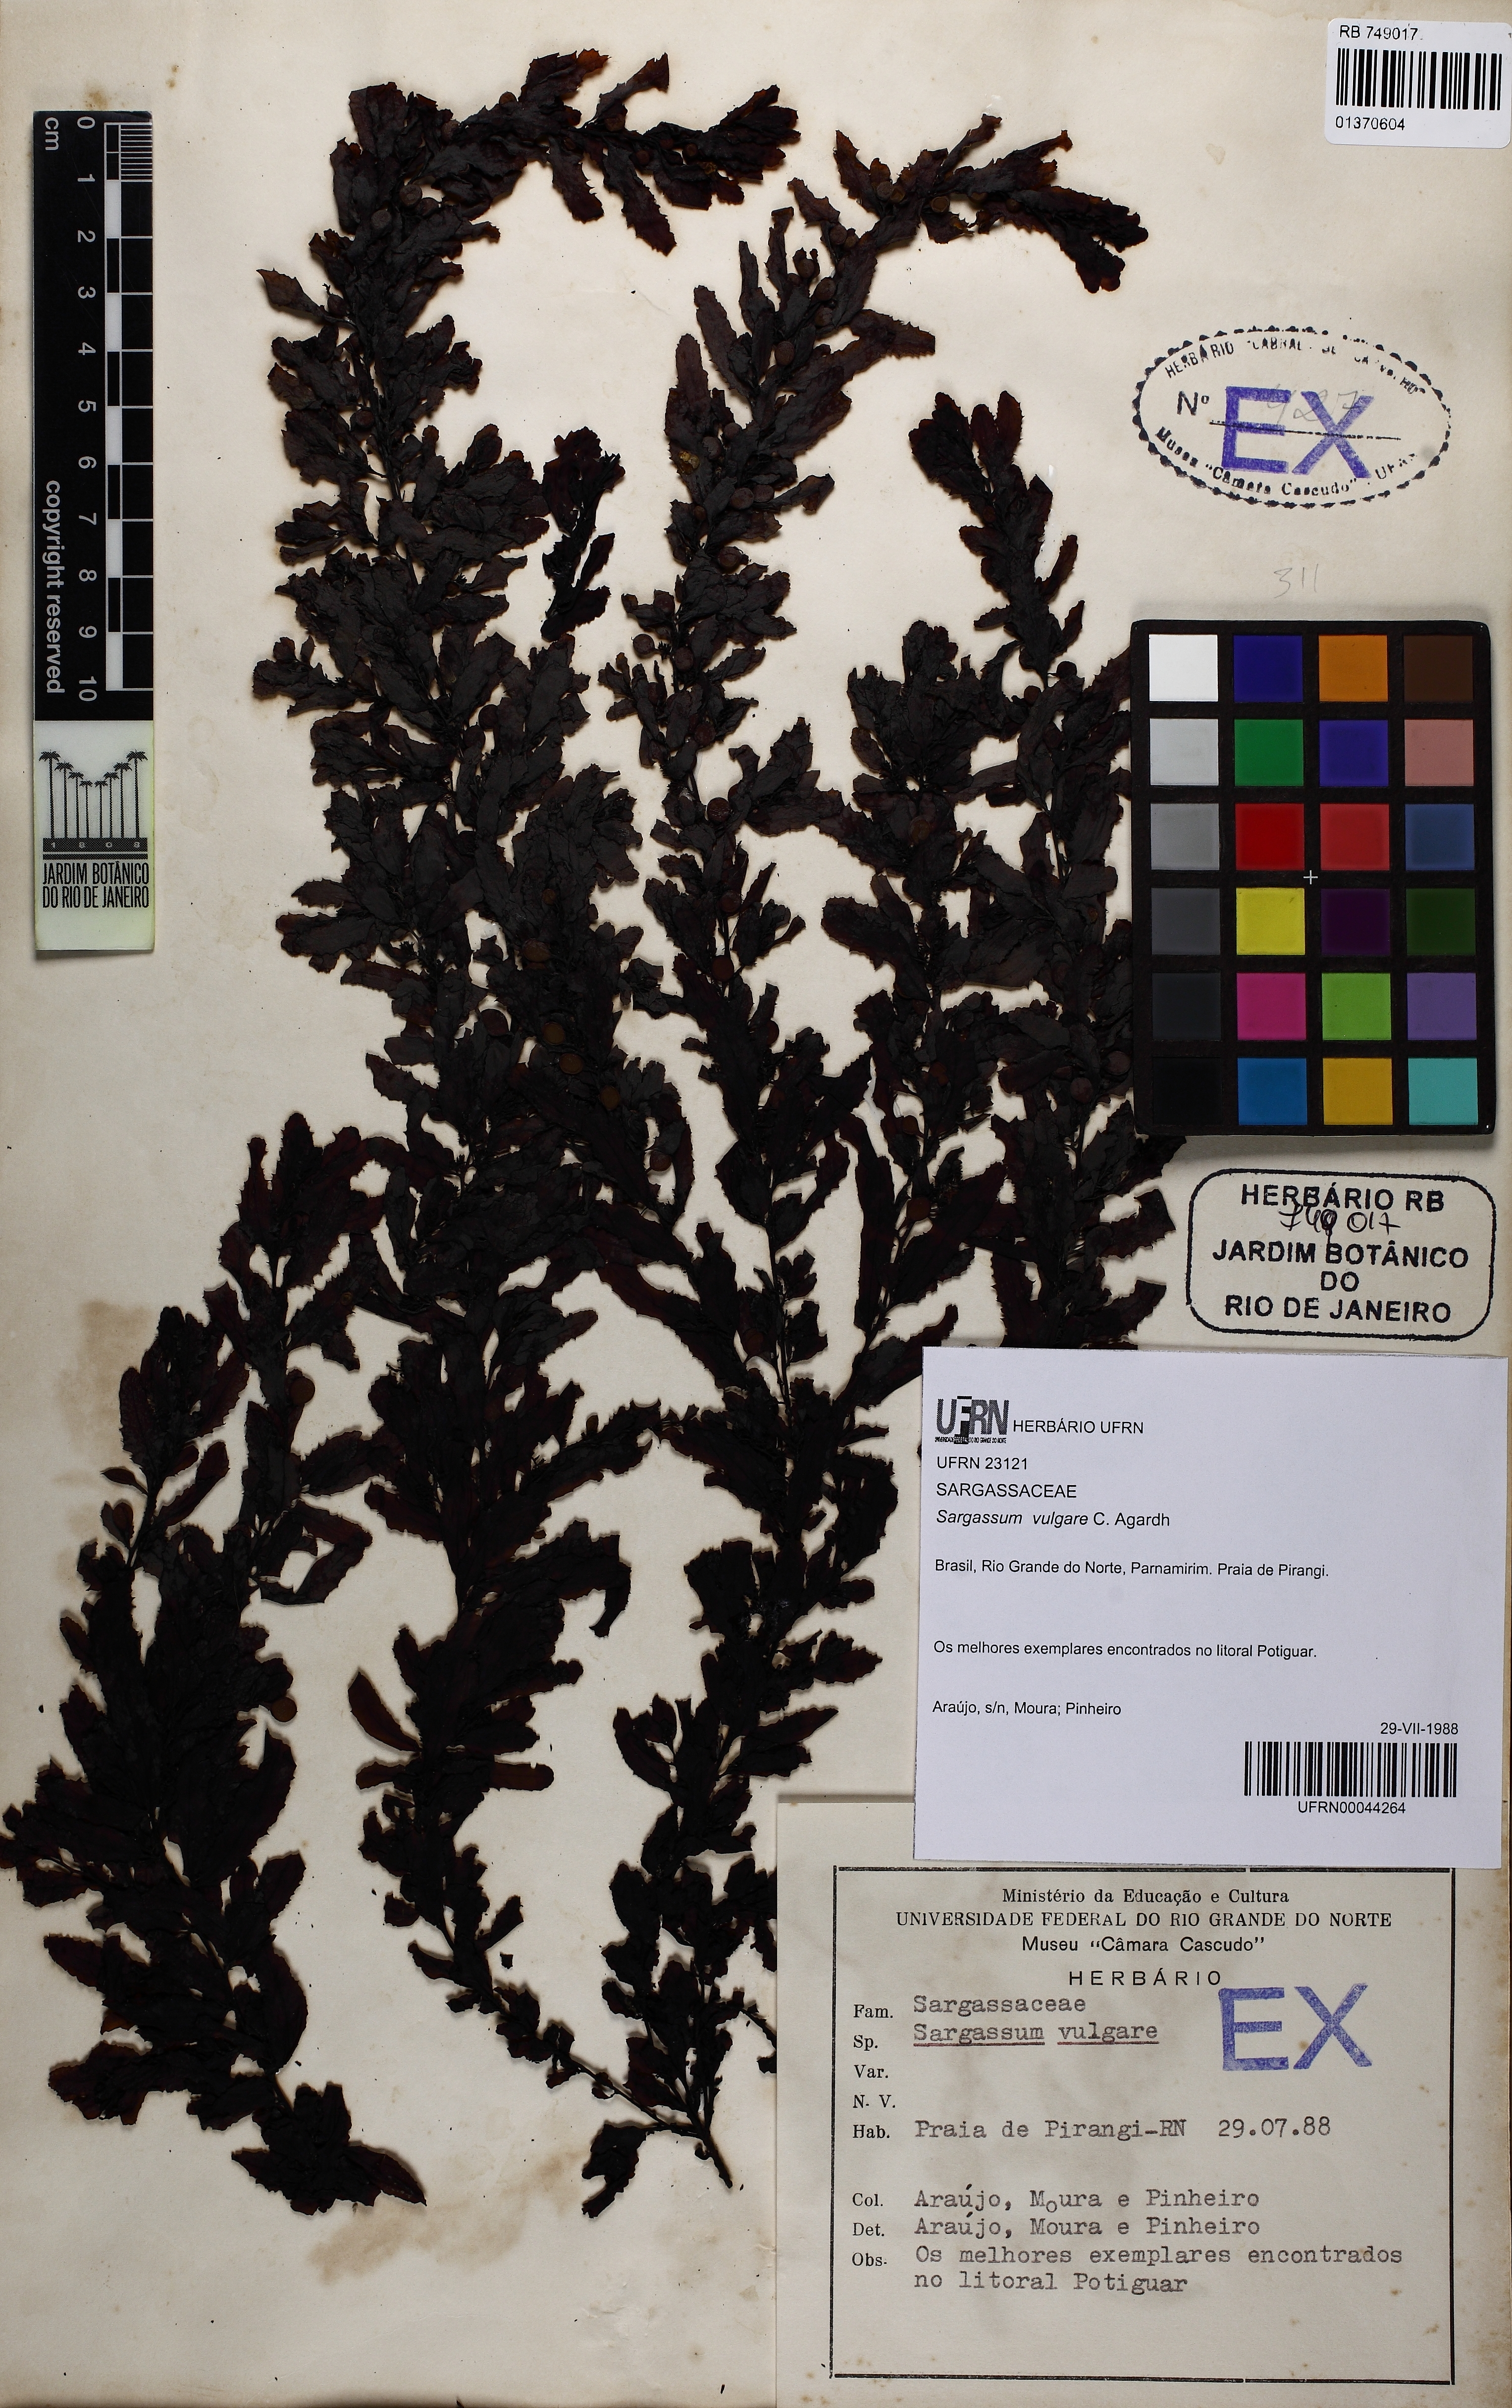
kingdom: Chromista
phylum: Ochrophyta
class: Phaeophyceae
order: Fucales
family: Sargassaceae
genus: Sargassum
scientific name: Sargassum vulgare
